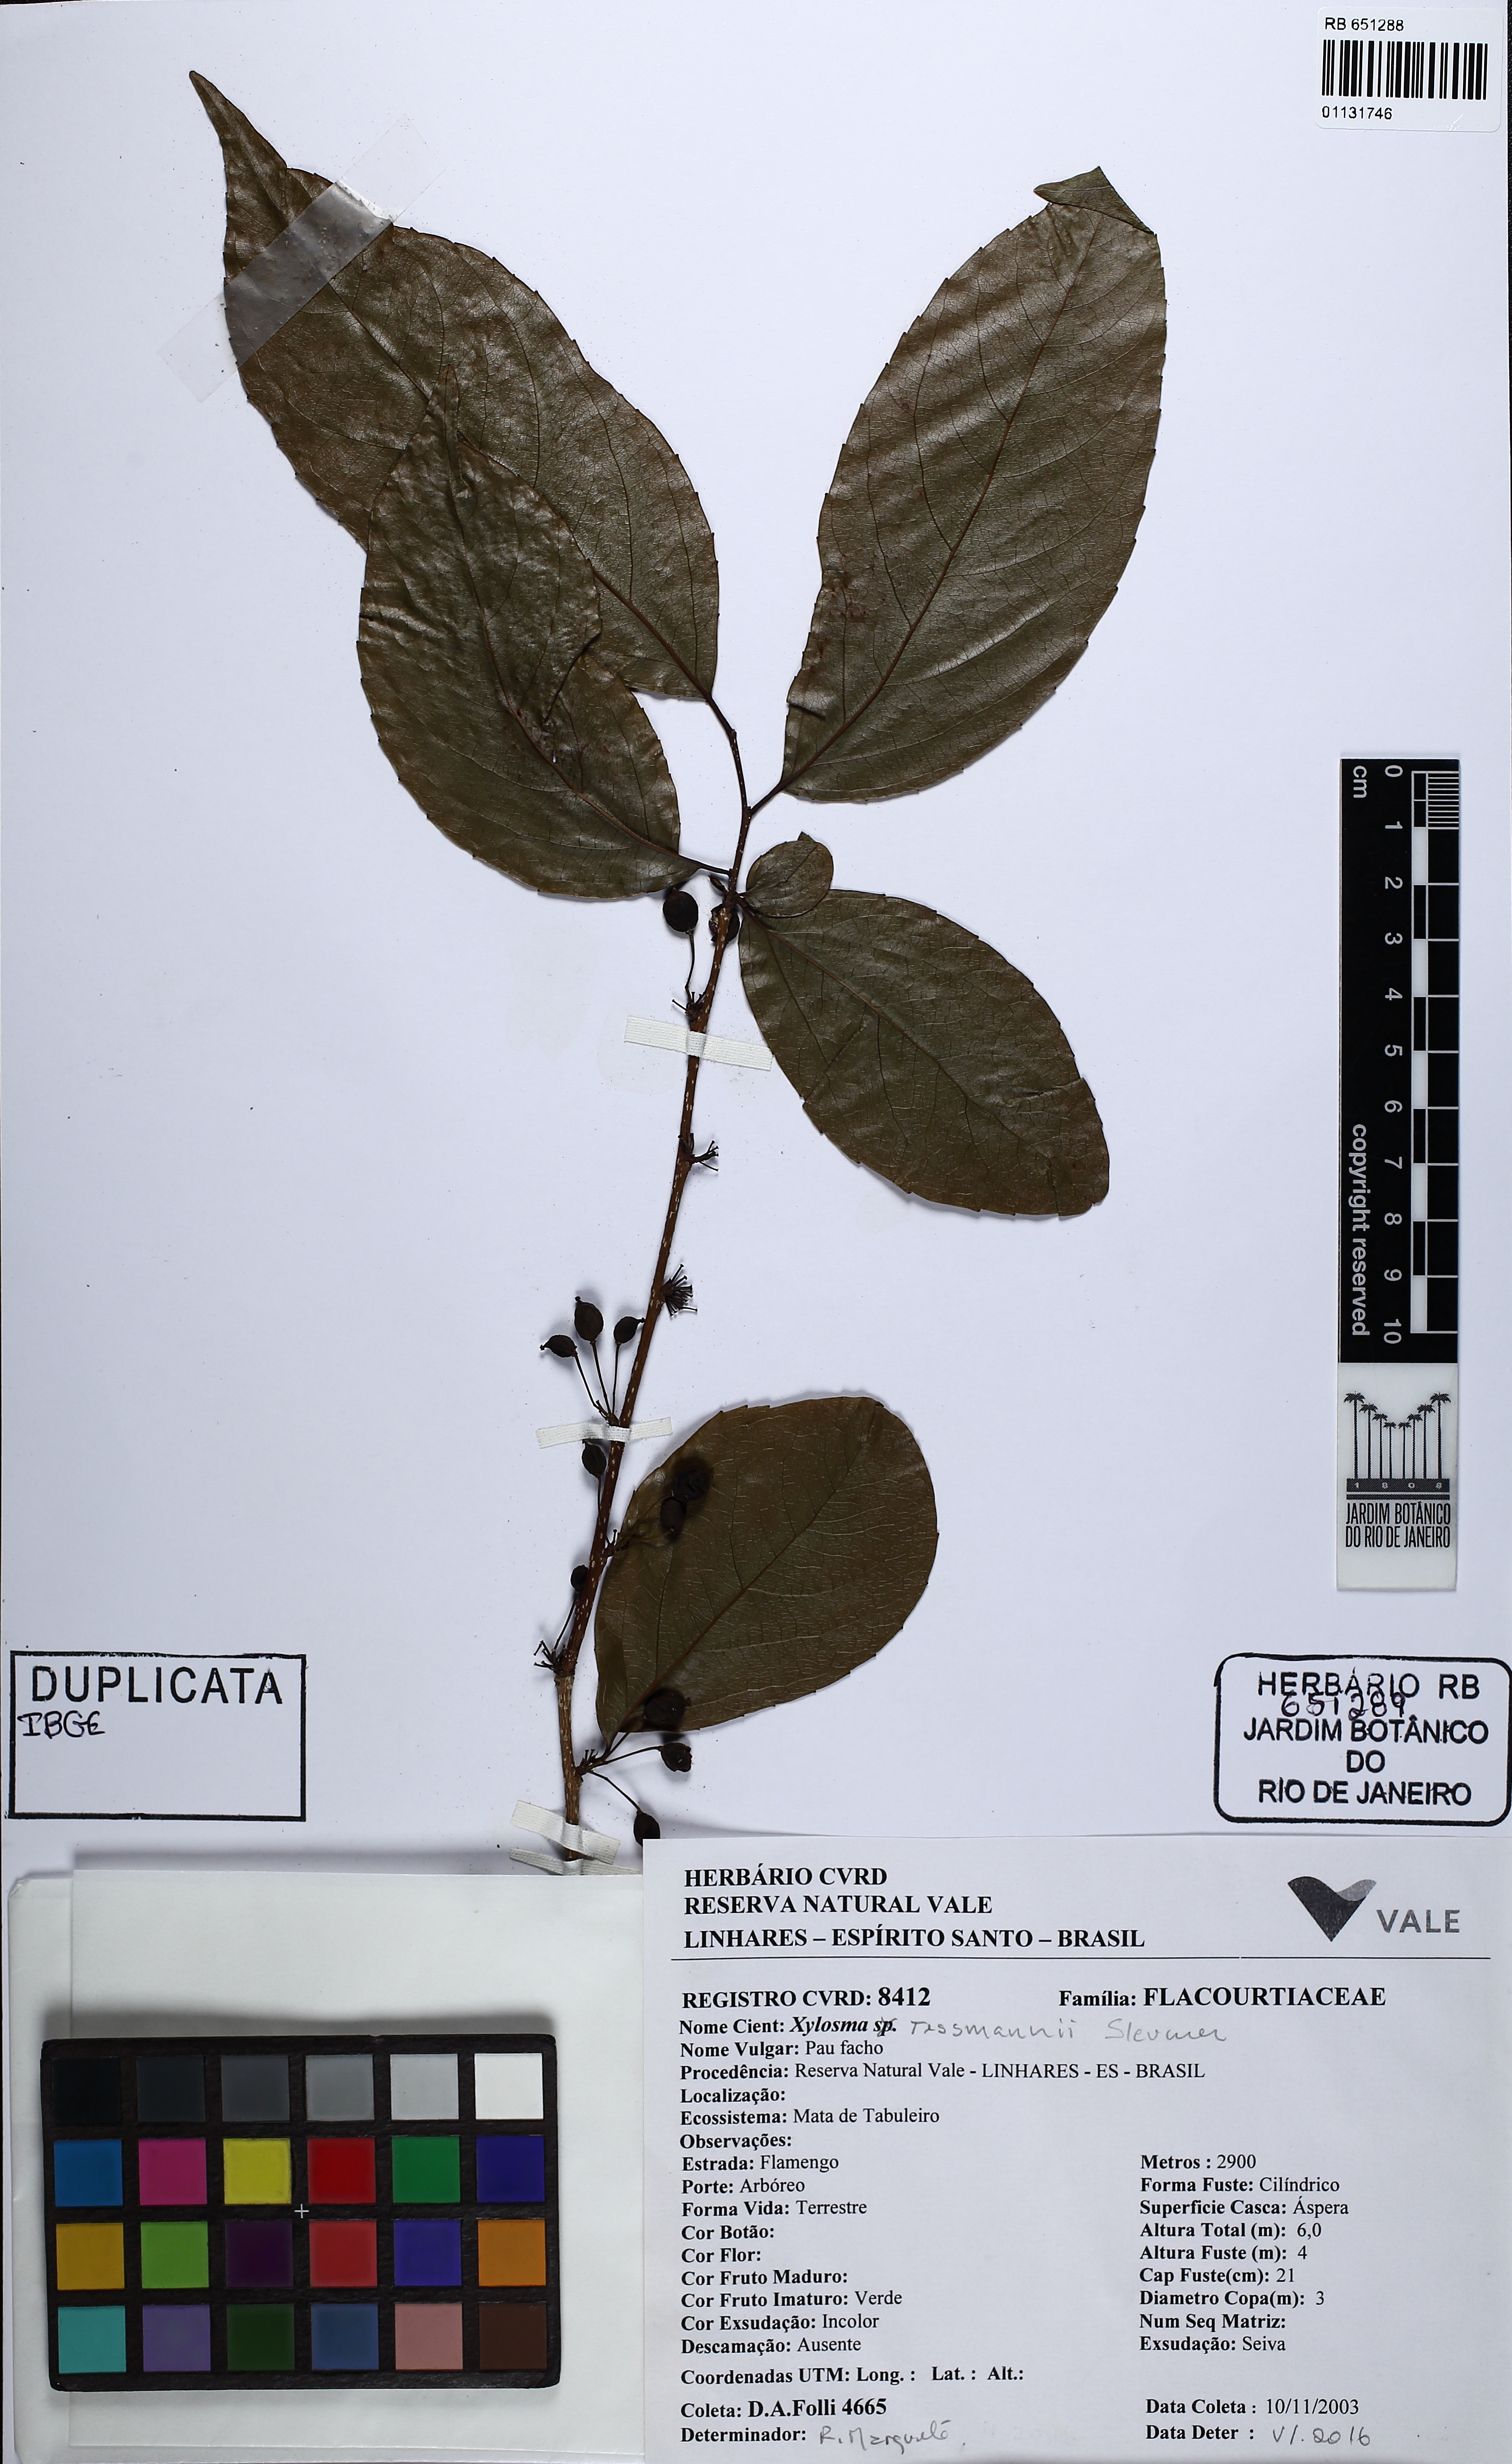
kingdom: Plantae
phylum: Tracheophyta
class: Magnoliopsida
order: Malpighiales
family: Salicaceae
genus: Flacourtia
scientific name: Flacourtia jangomas
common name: Indian-plum
